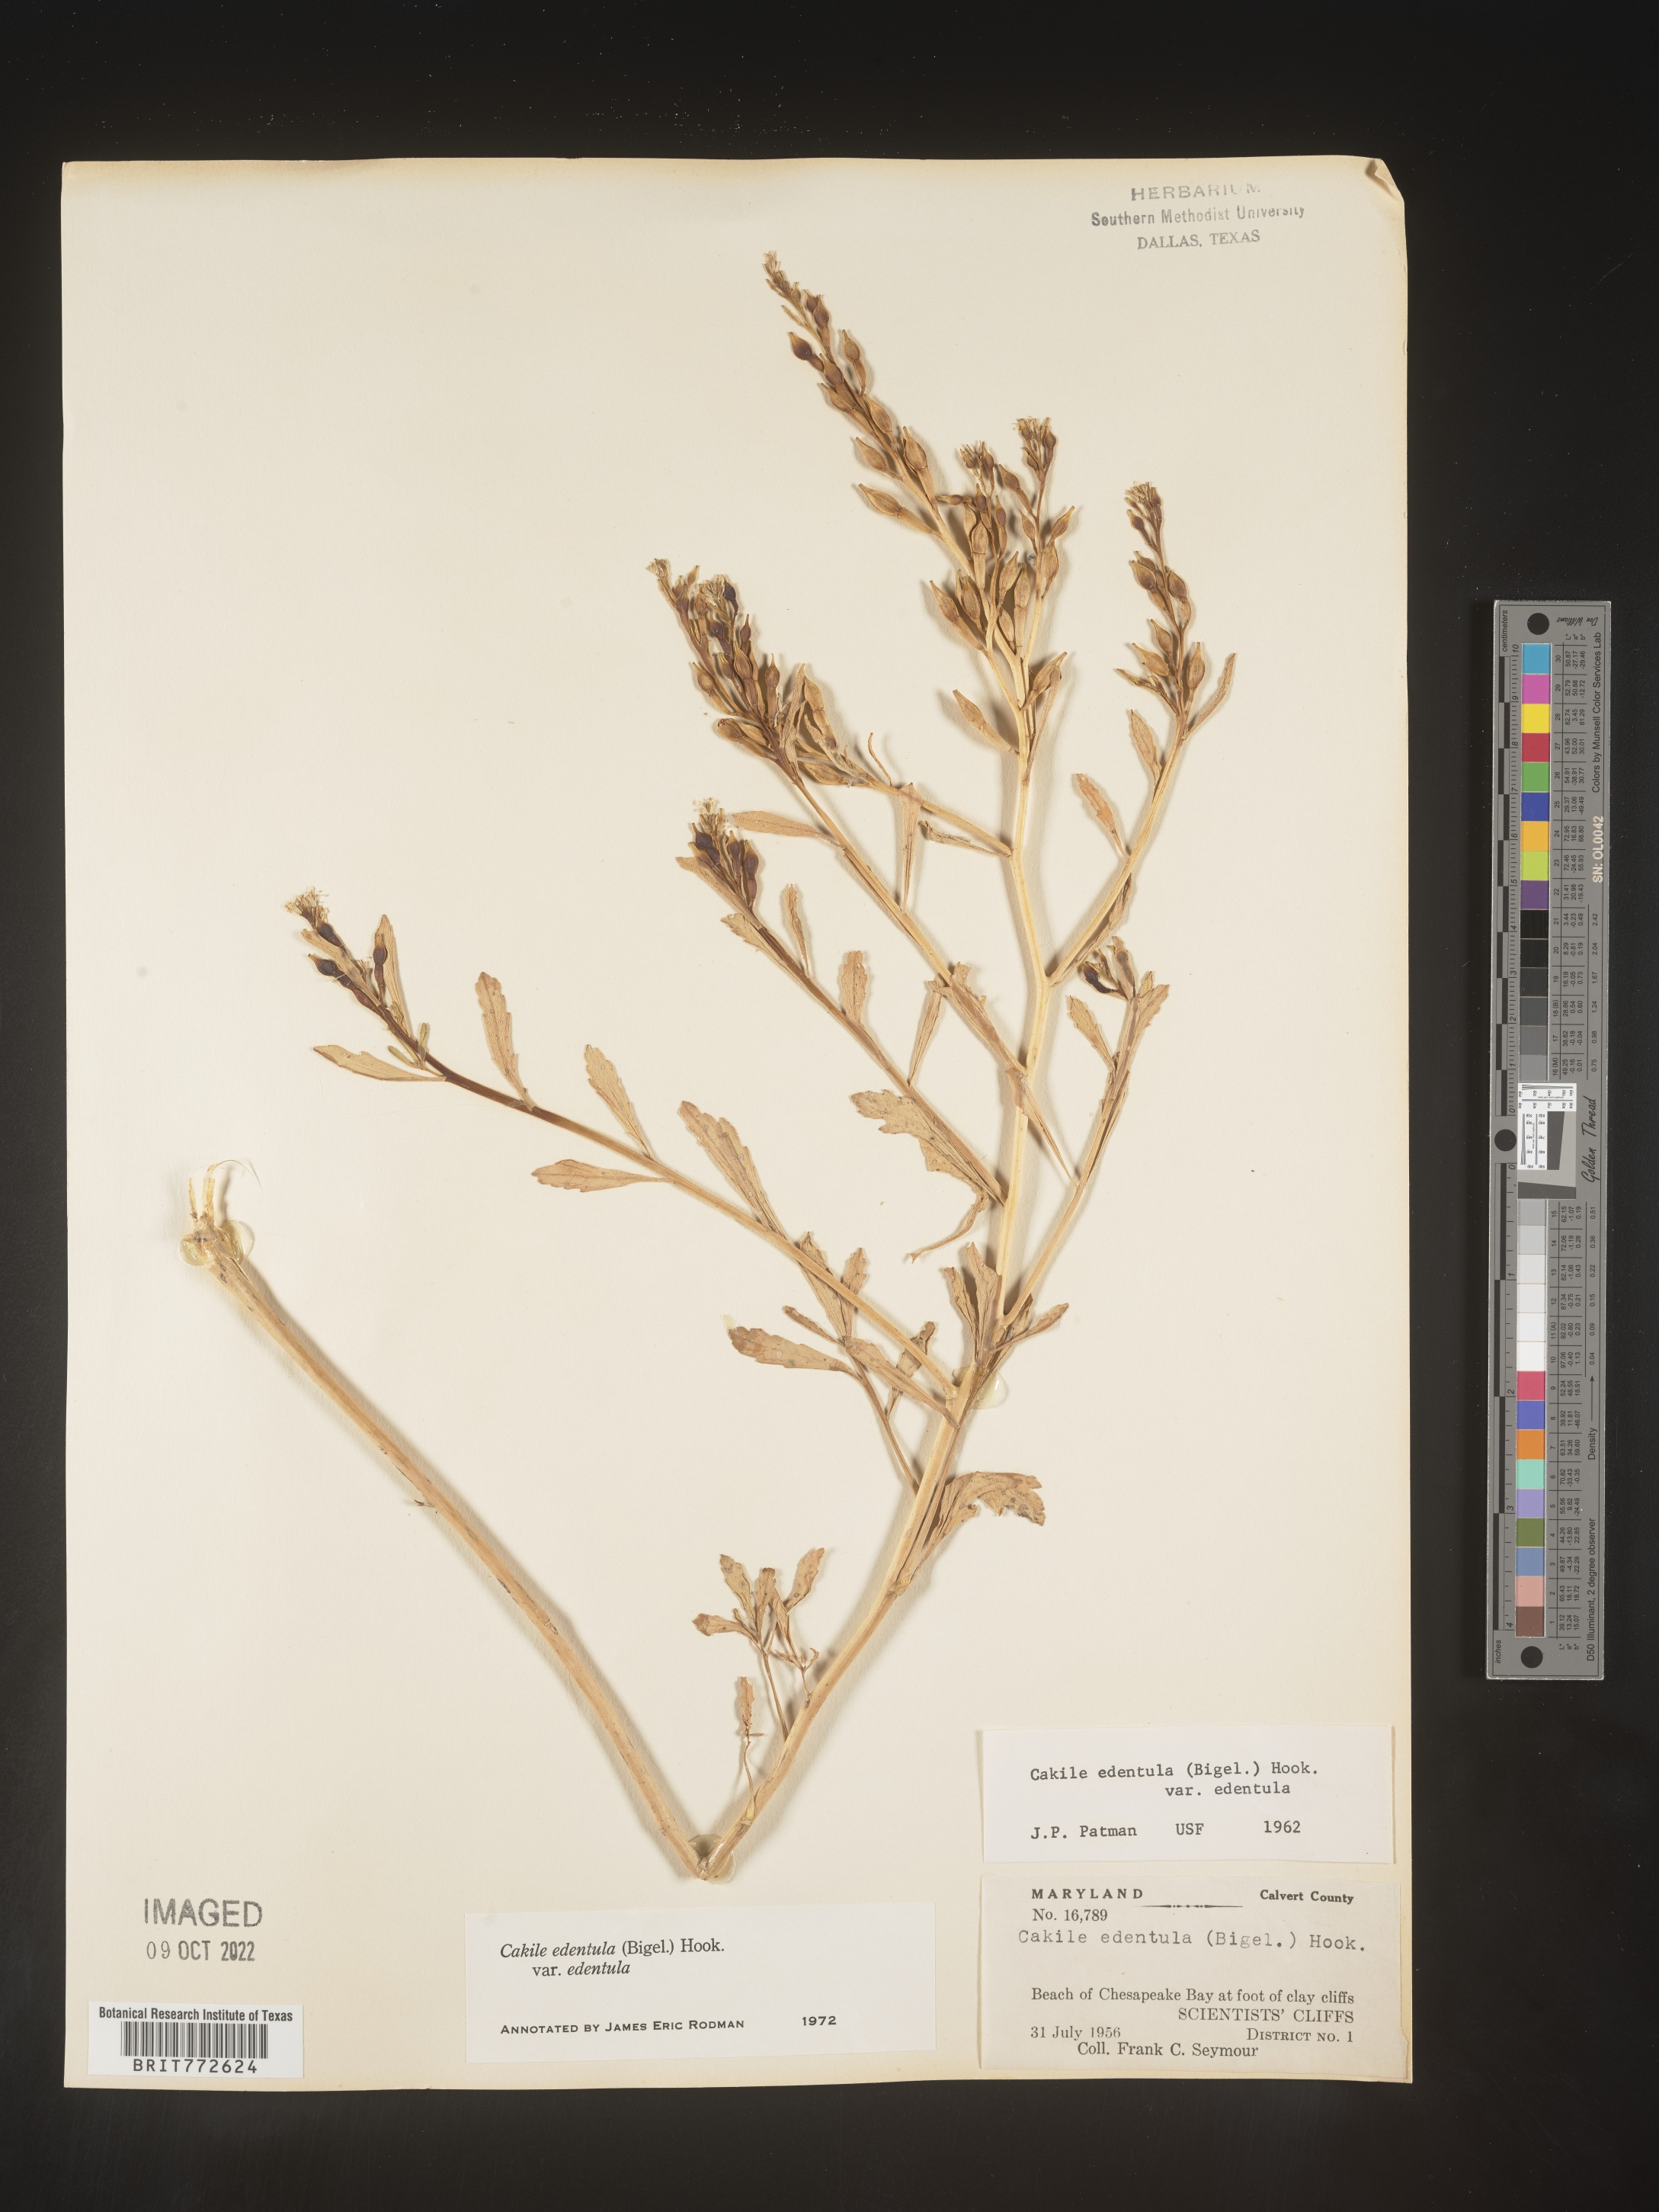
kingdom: Plantae
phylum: Tracheophyta
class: Magnoliopsida
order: Brassicales
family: Brassicaceae
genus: Cakile
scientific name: Cakile edentula
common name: American sea rocket
